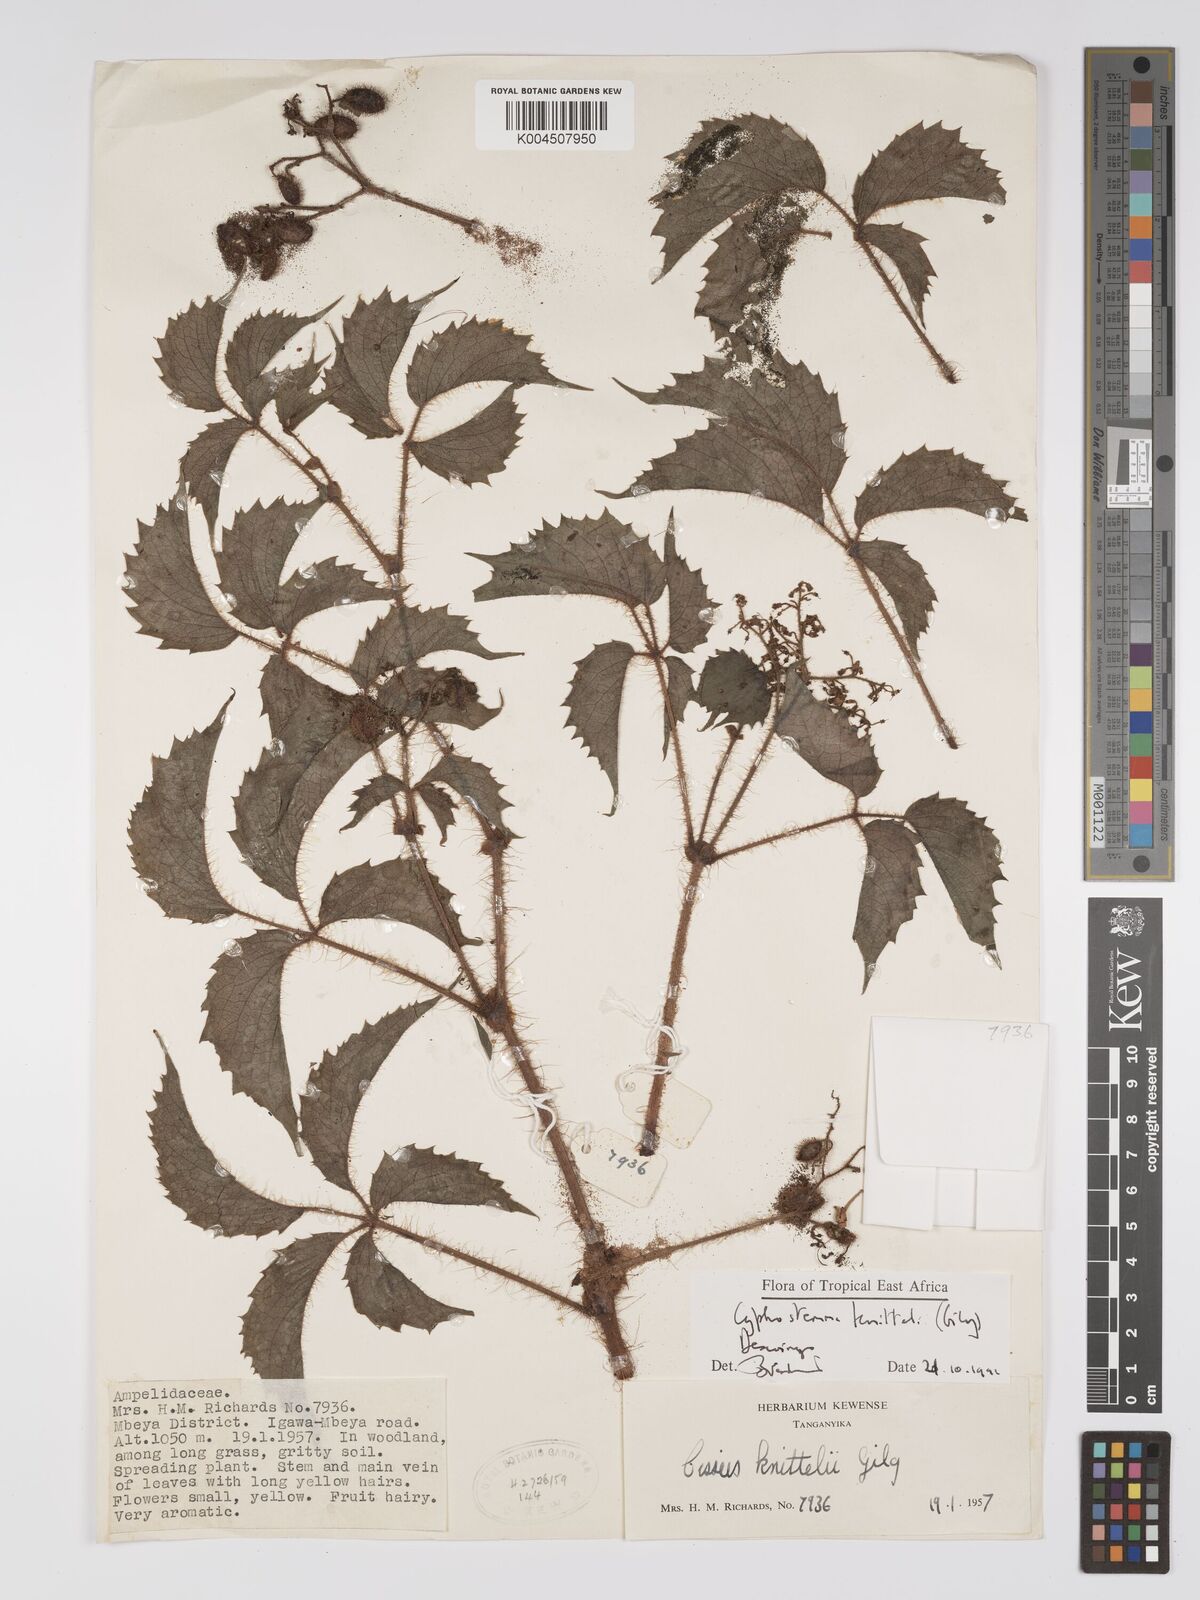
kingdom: Plantae
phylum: Tracheophyta
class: Magnoliopsida
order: Vitales
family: Vitaceae
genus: Cyphostemma
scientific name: Cyphostemma knittelii
